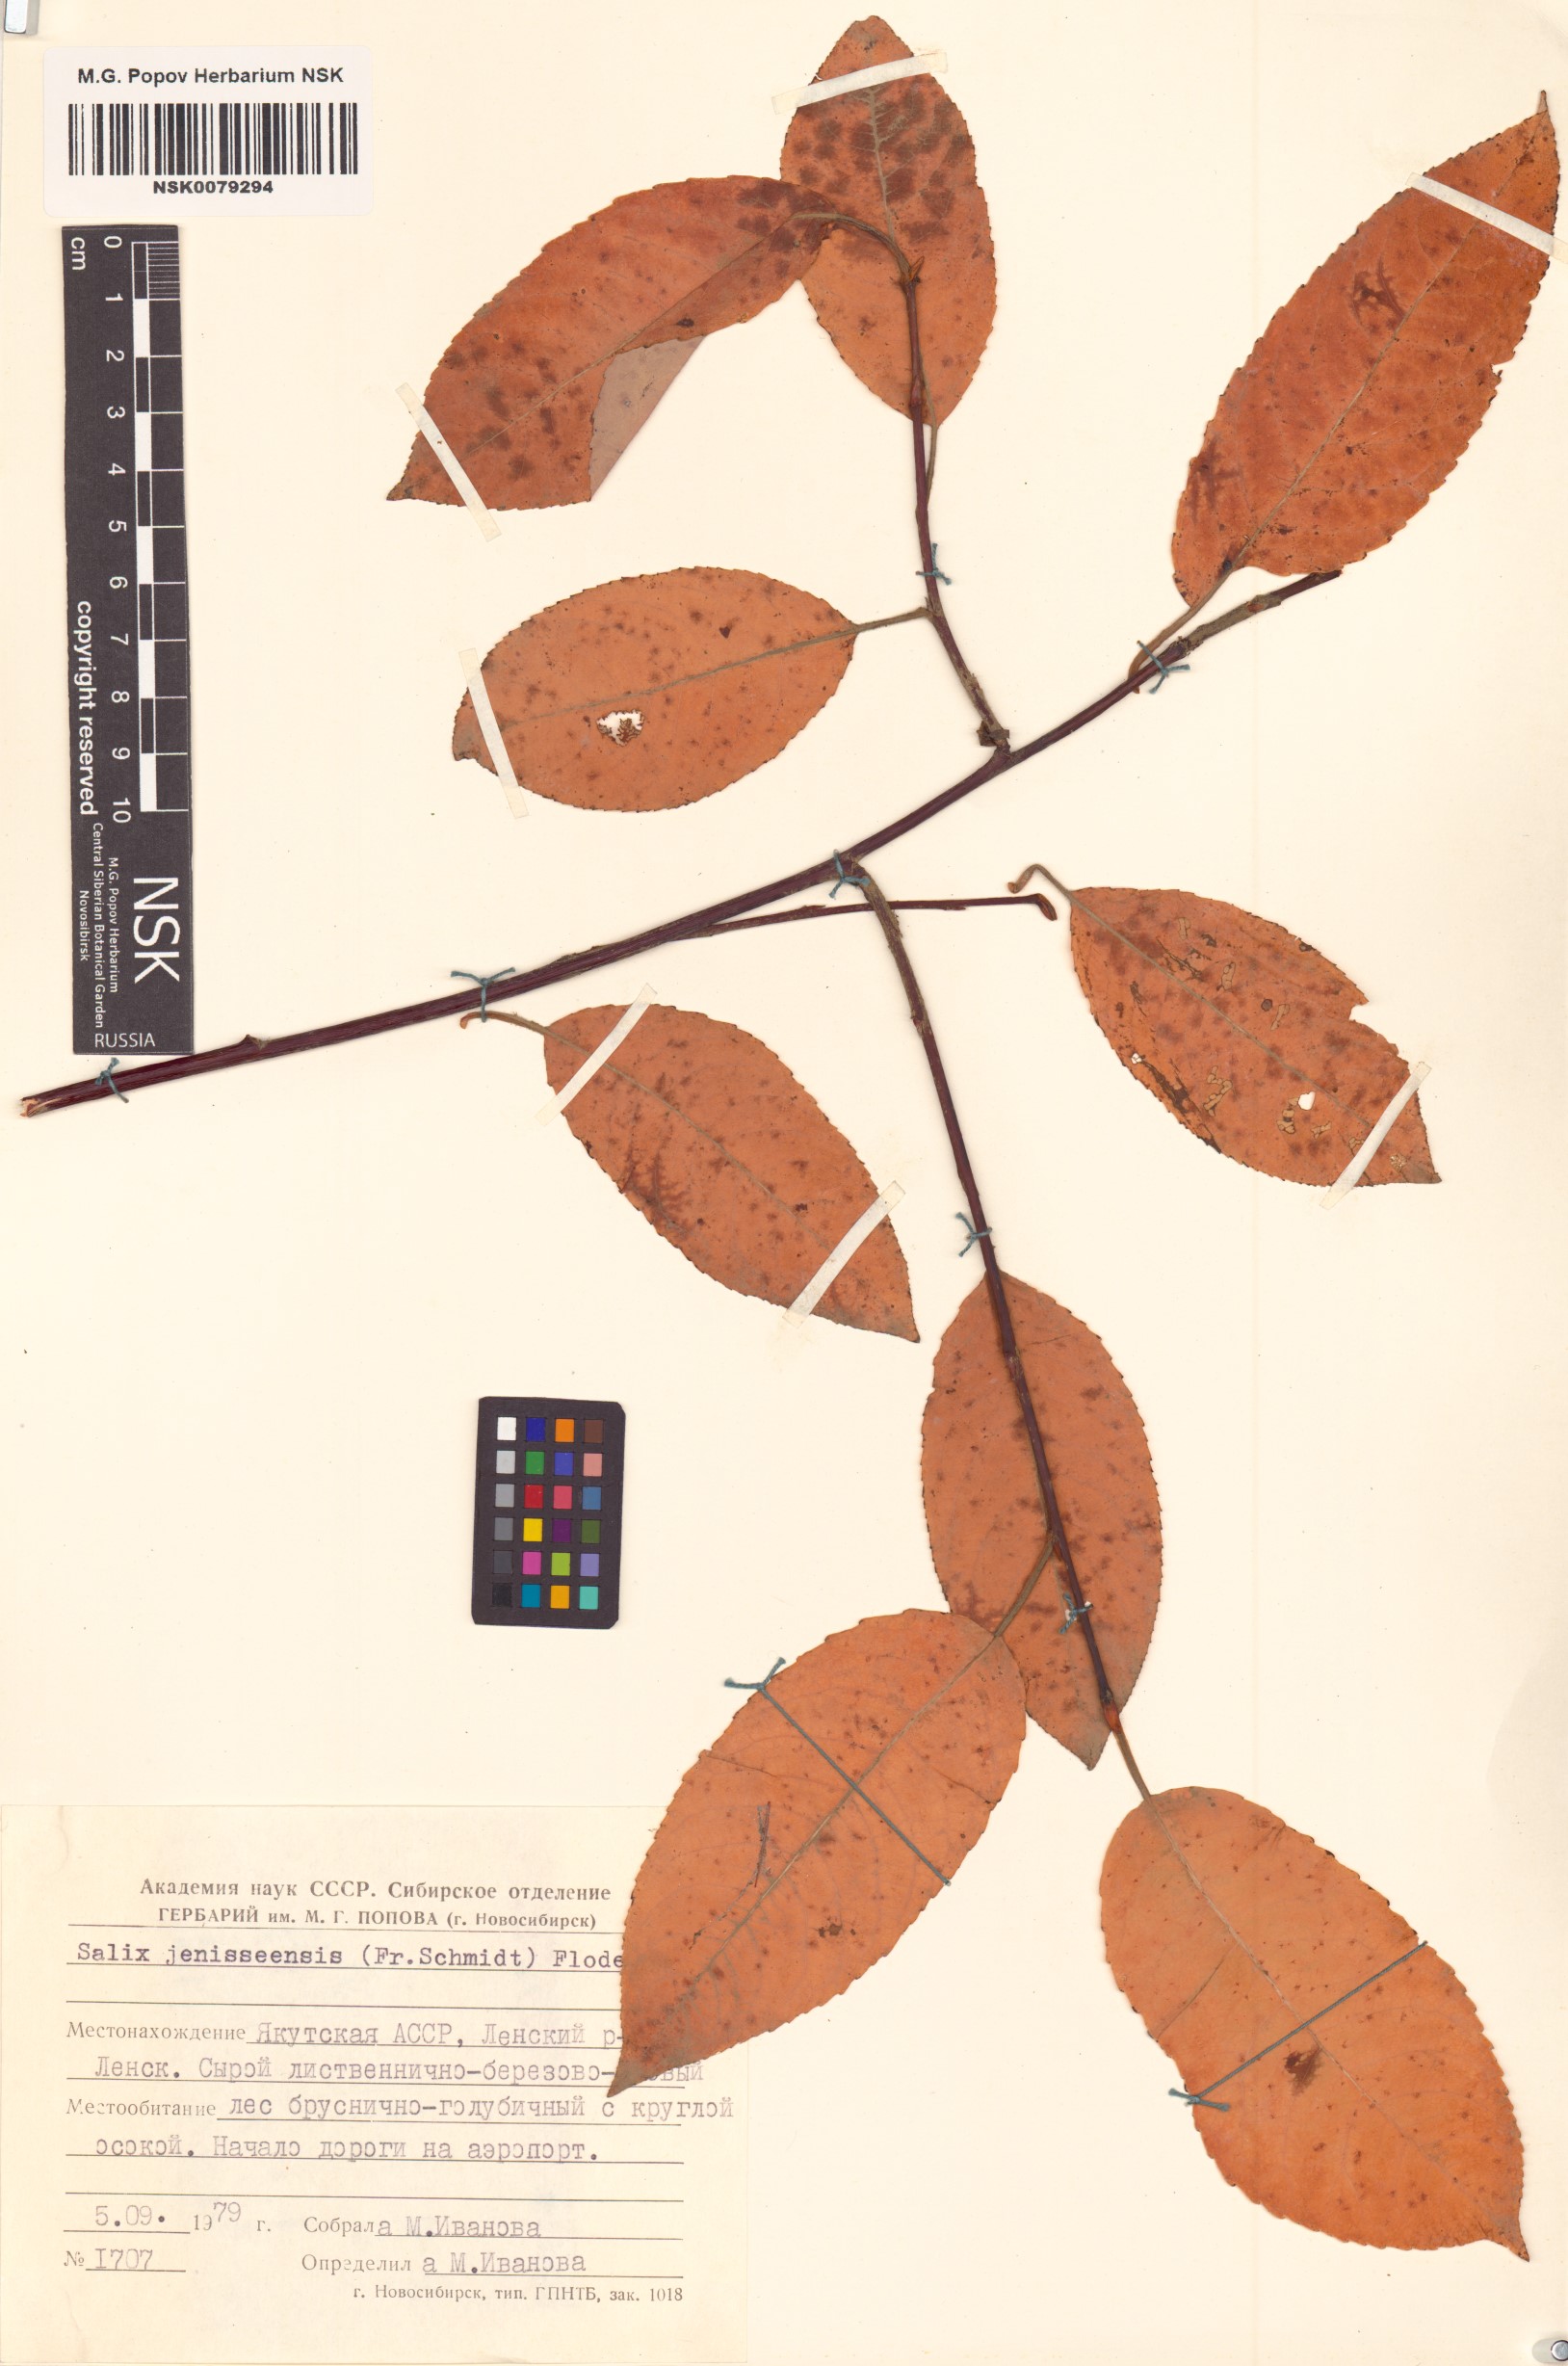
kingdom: Plantae
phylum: Tracheophyta
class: Magnoliopsida
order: Malpighiales
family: Salicaceae
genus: Salix
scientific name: Salix jenisseensis
